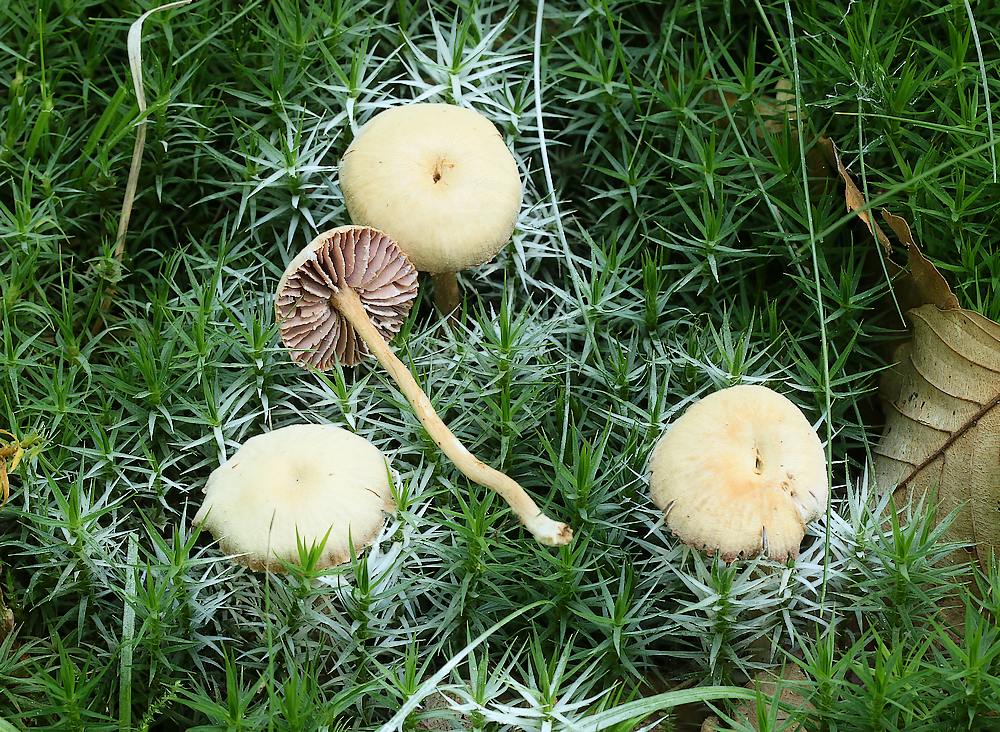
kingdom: Fungi
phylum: Basidiomycota
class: Agaricomycetes
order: Agaricales
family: Hydnangiaceae
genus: Laccaria
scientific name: Laccaria laccata
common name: rød ametysthat
